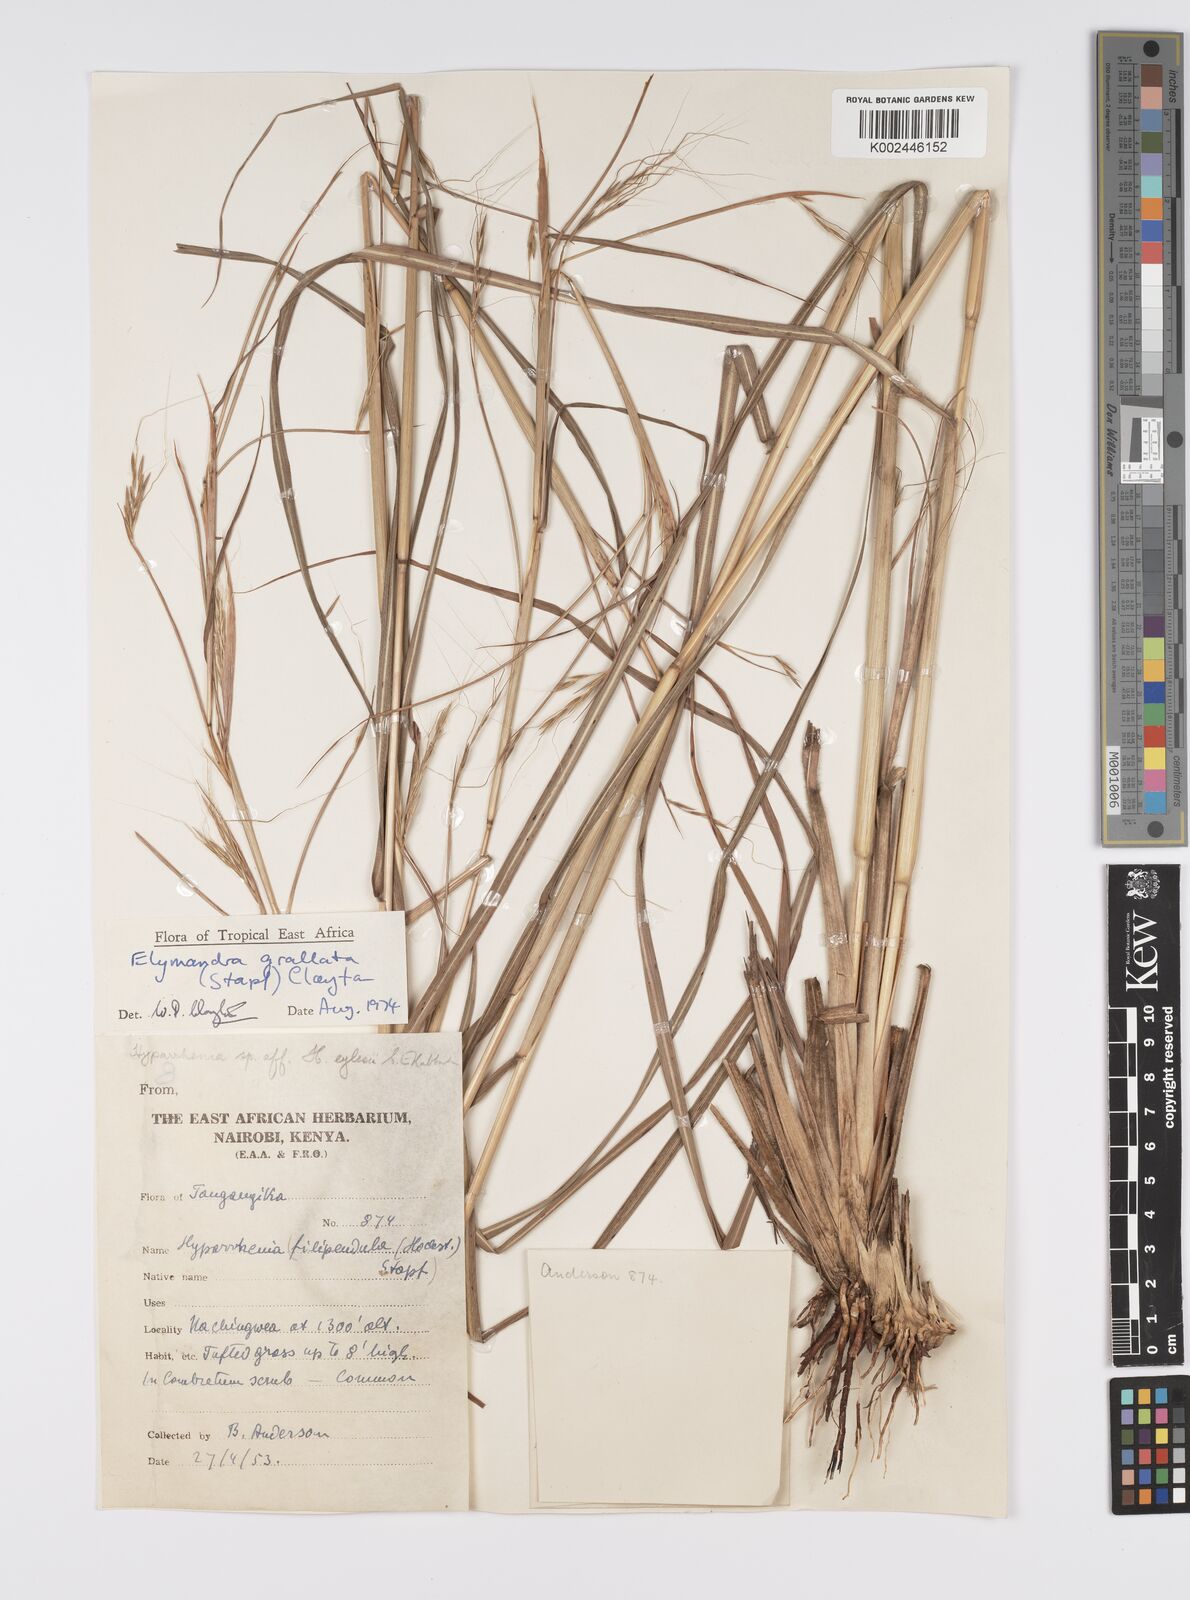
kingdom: Plantae
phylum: Tracheophyta
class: Liliopsida
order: Poales
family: Poaceae
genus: Elymandra
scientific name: Elymandra grallata
